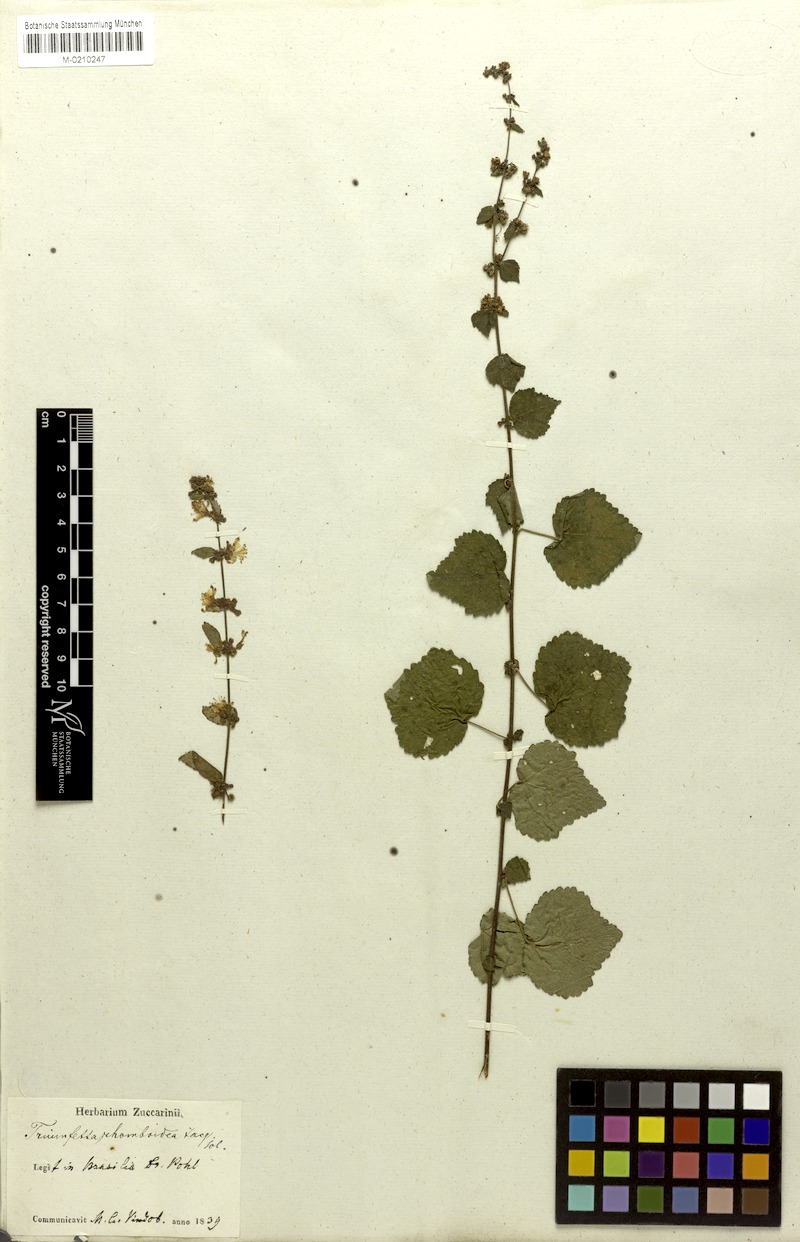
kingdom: Plantae
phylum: Tracheophyta
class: Magnoliopsida
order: Malvales
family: Malvaceae
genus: Triumfetta
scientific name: Triumfetta rhomboidea
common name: Diamond burbark
